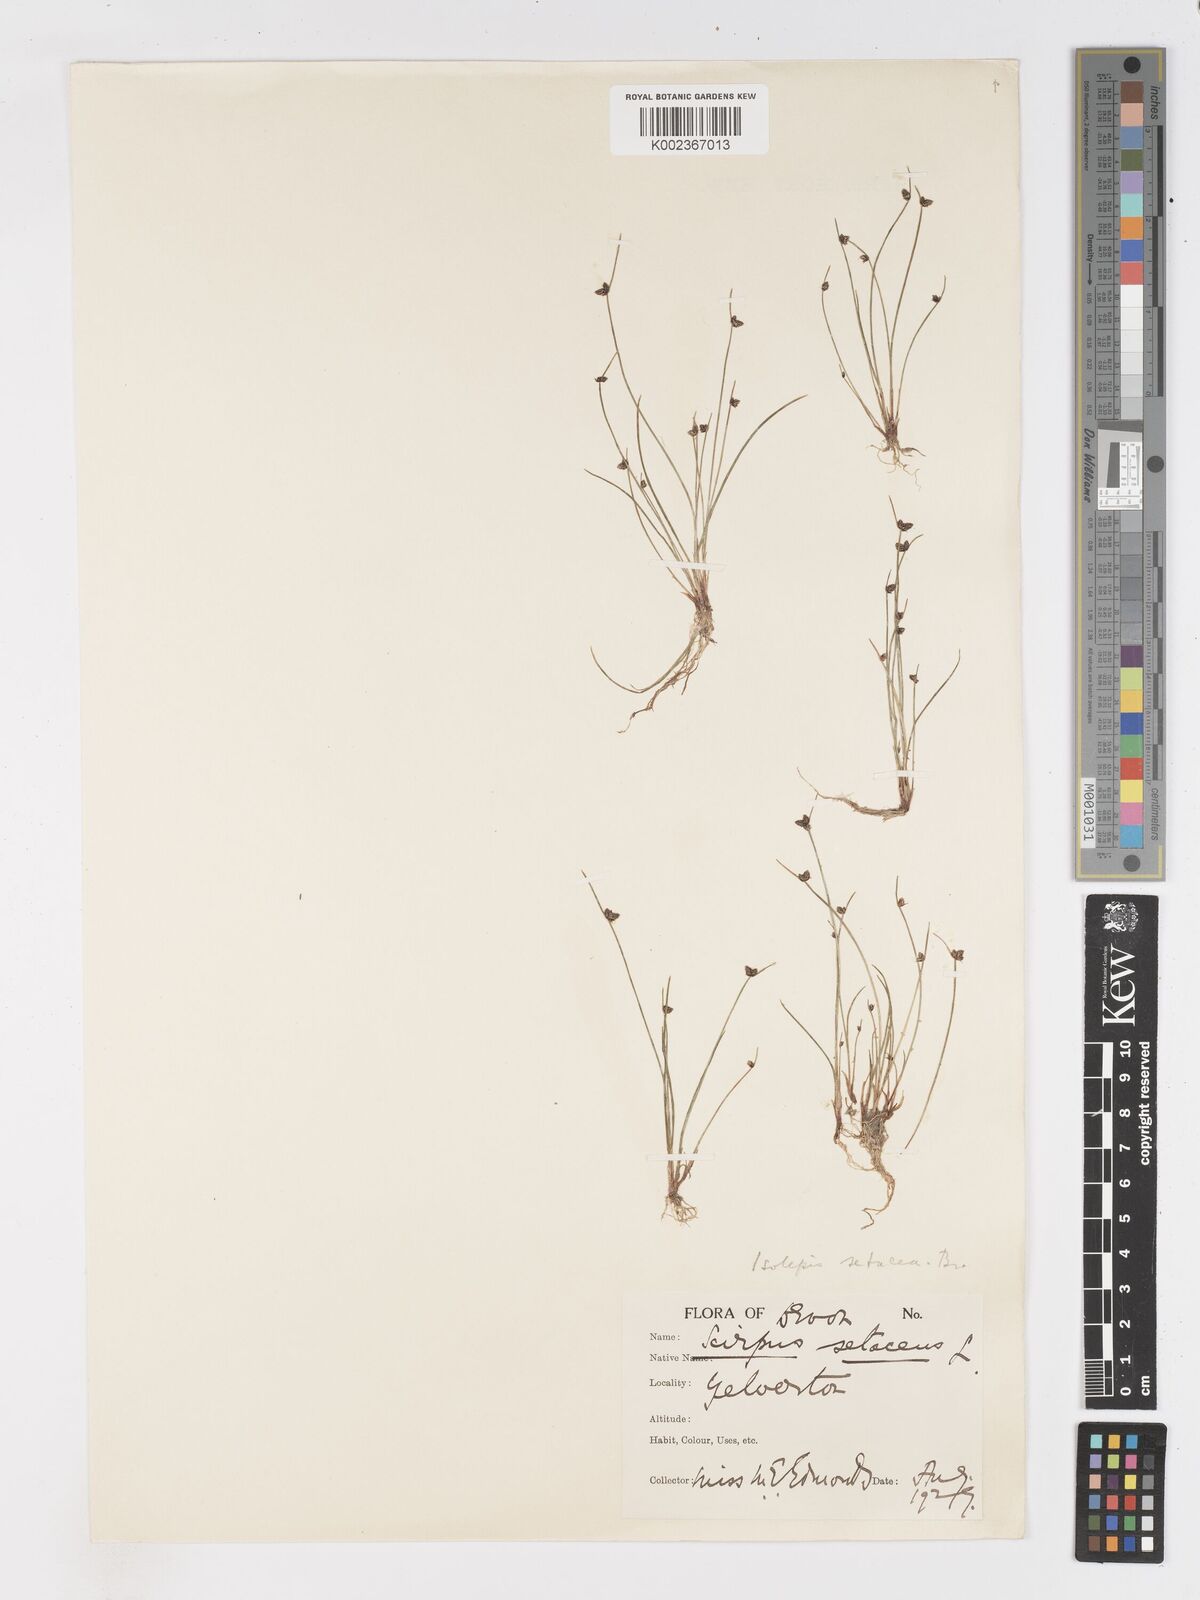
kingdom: Plantae
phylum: Tracheophyta
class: Liliopsida
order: Poales
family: Cyperaceae
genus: Isolepis
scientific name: Isolepis setacea
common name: Bristle club-rush
